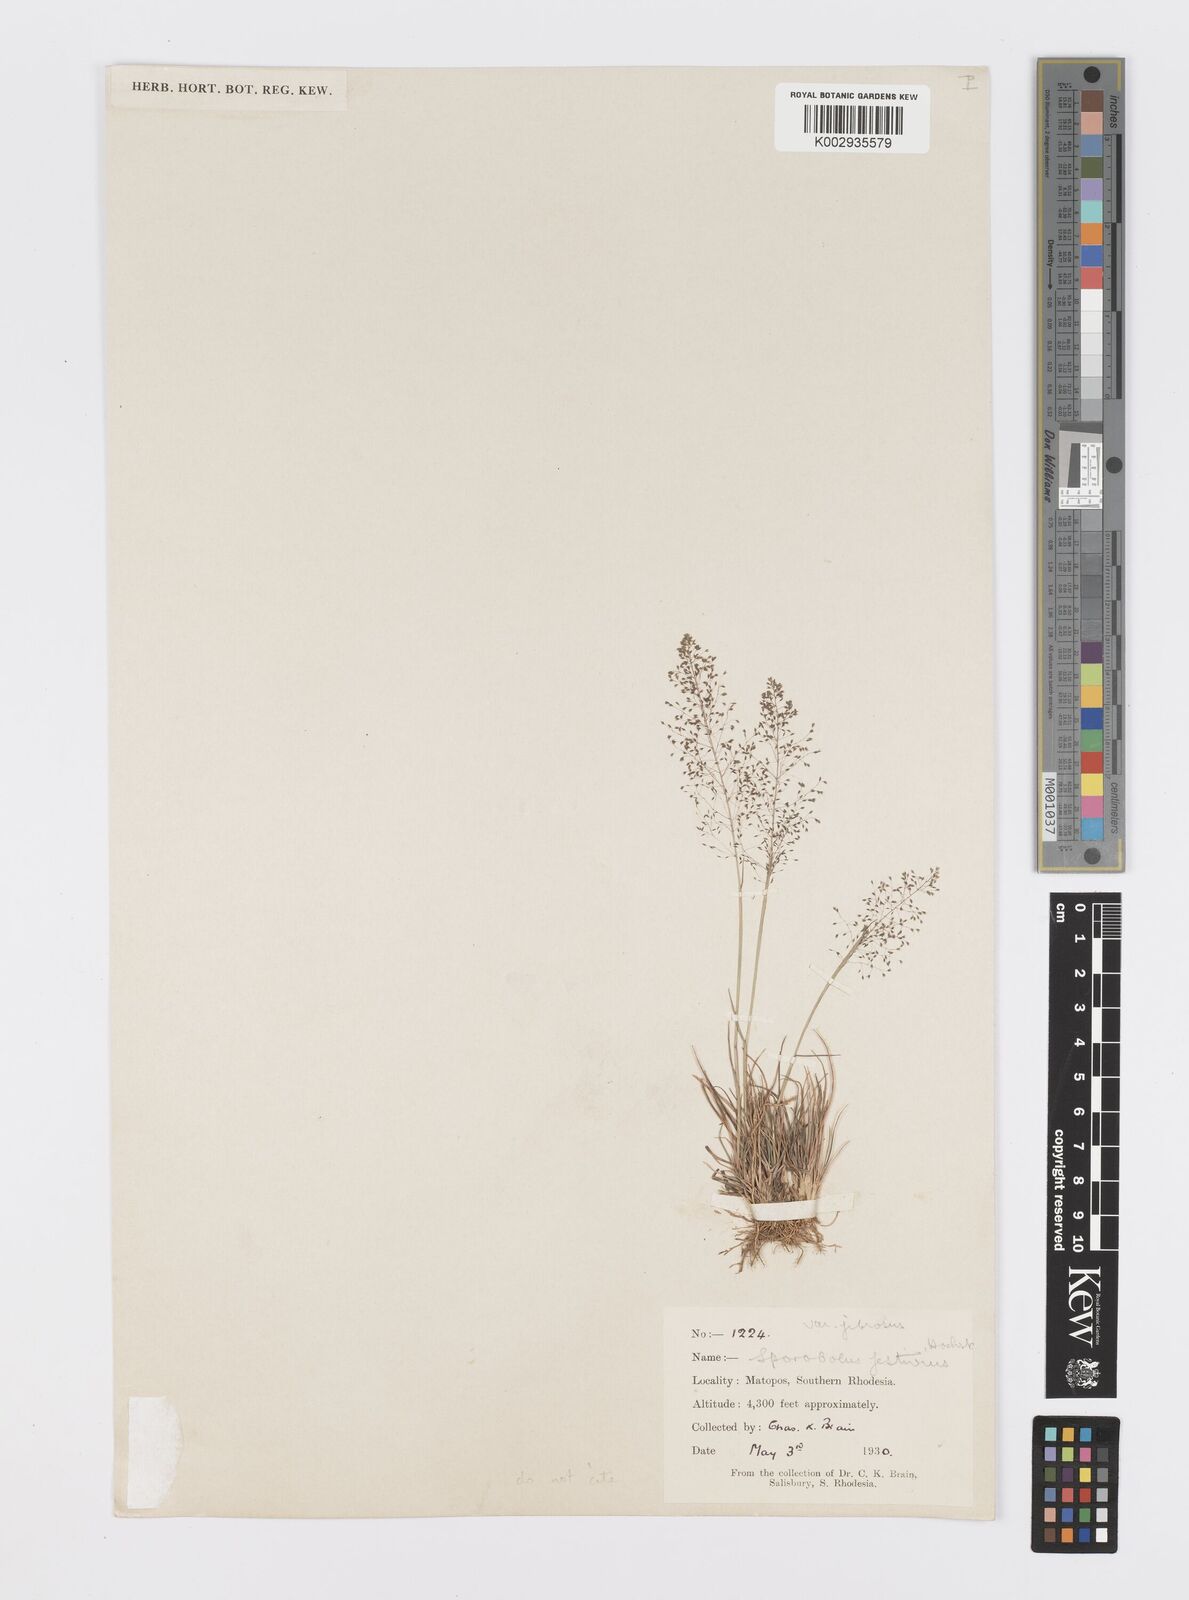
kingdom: Plantae
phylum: Tracheophyta
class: Liliopsida
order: Poales
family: Poaceae
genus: Sporobolus
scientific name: Sporobolus festivus
